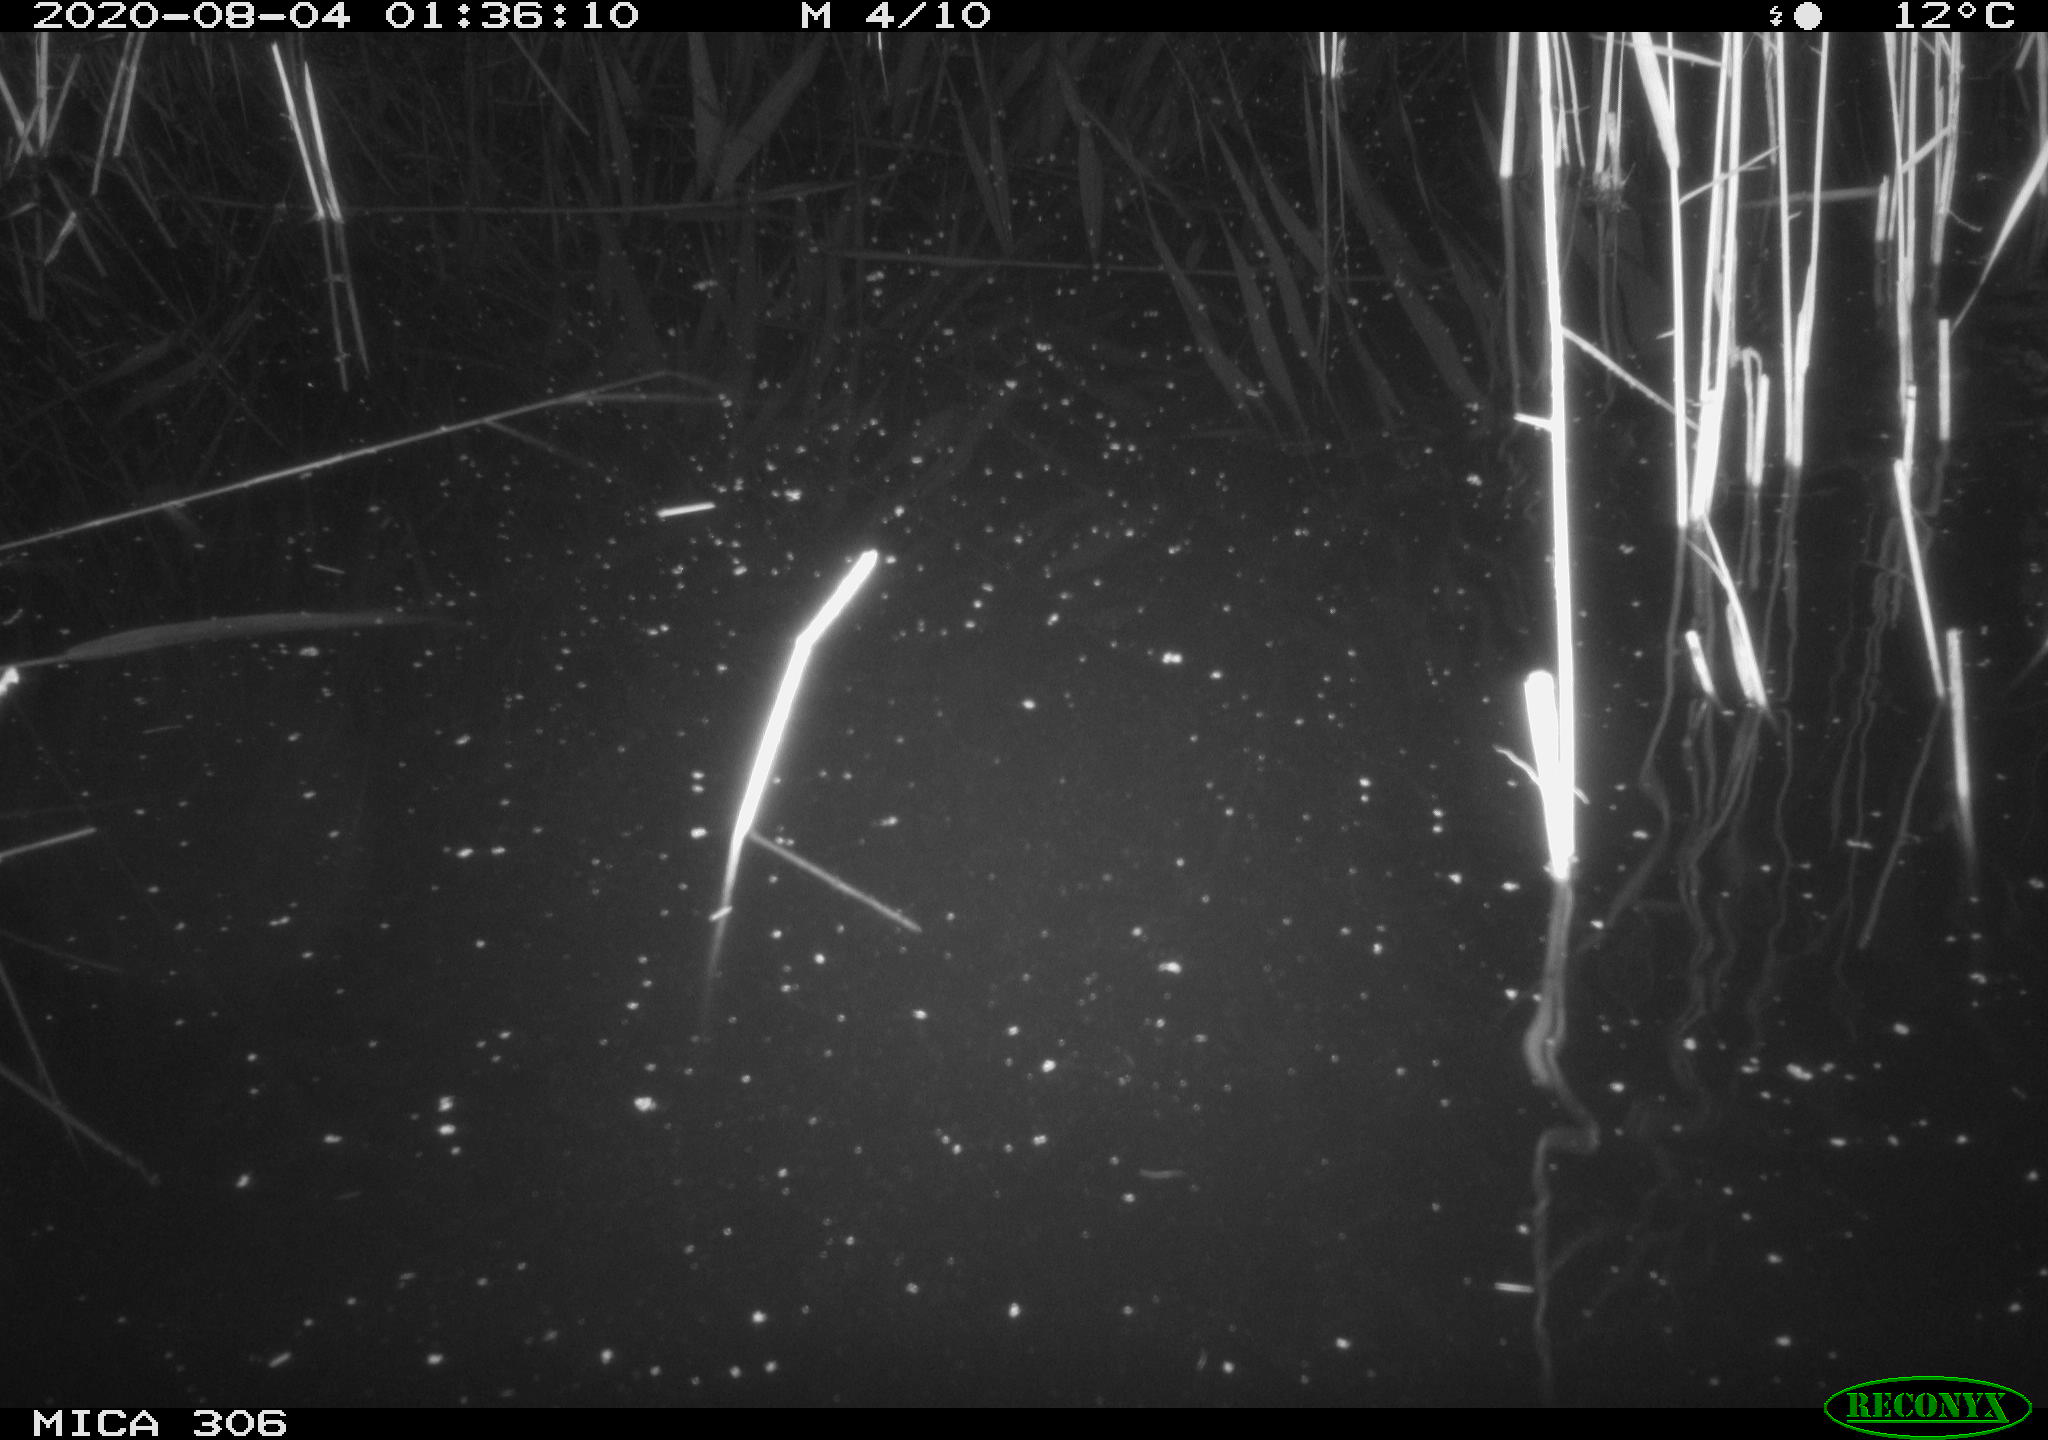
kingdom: Animalia
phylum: Chordata
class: Mammalia
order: Rodentia
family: Muridae
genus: Rattus
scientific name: Rattus norvegicus
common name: Brown rat
